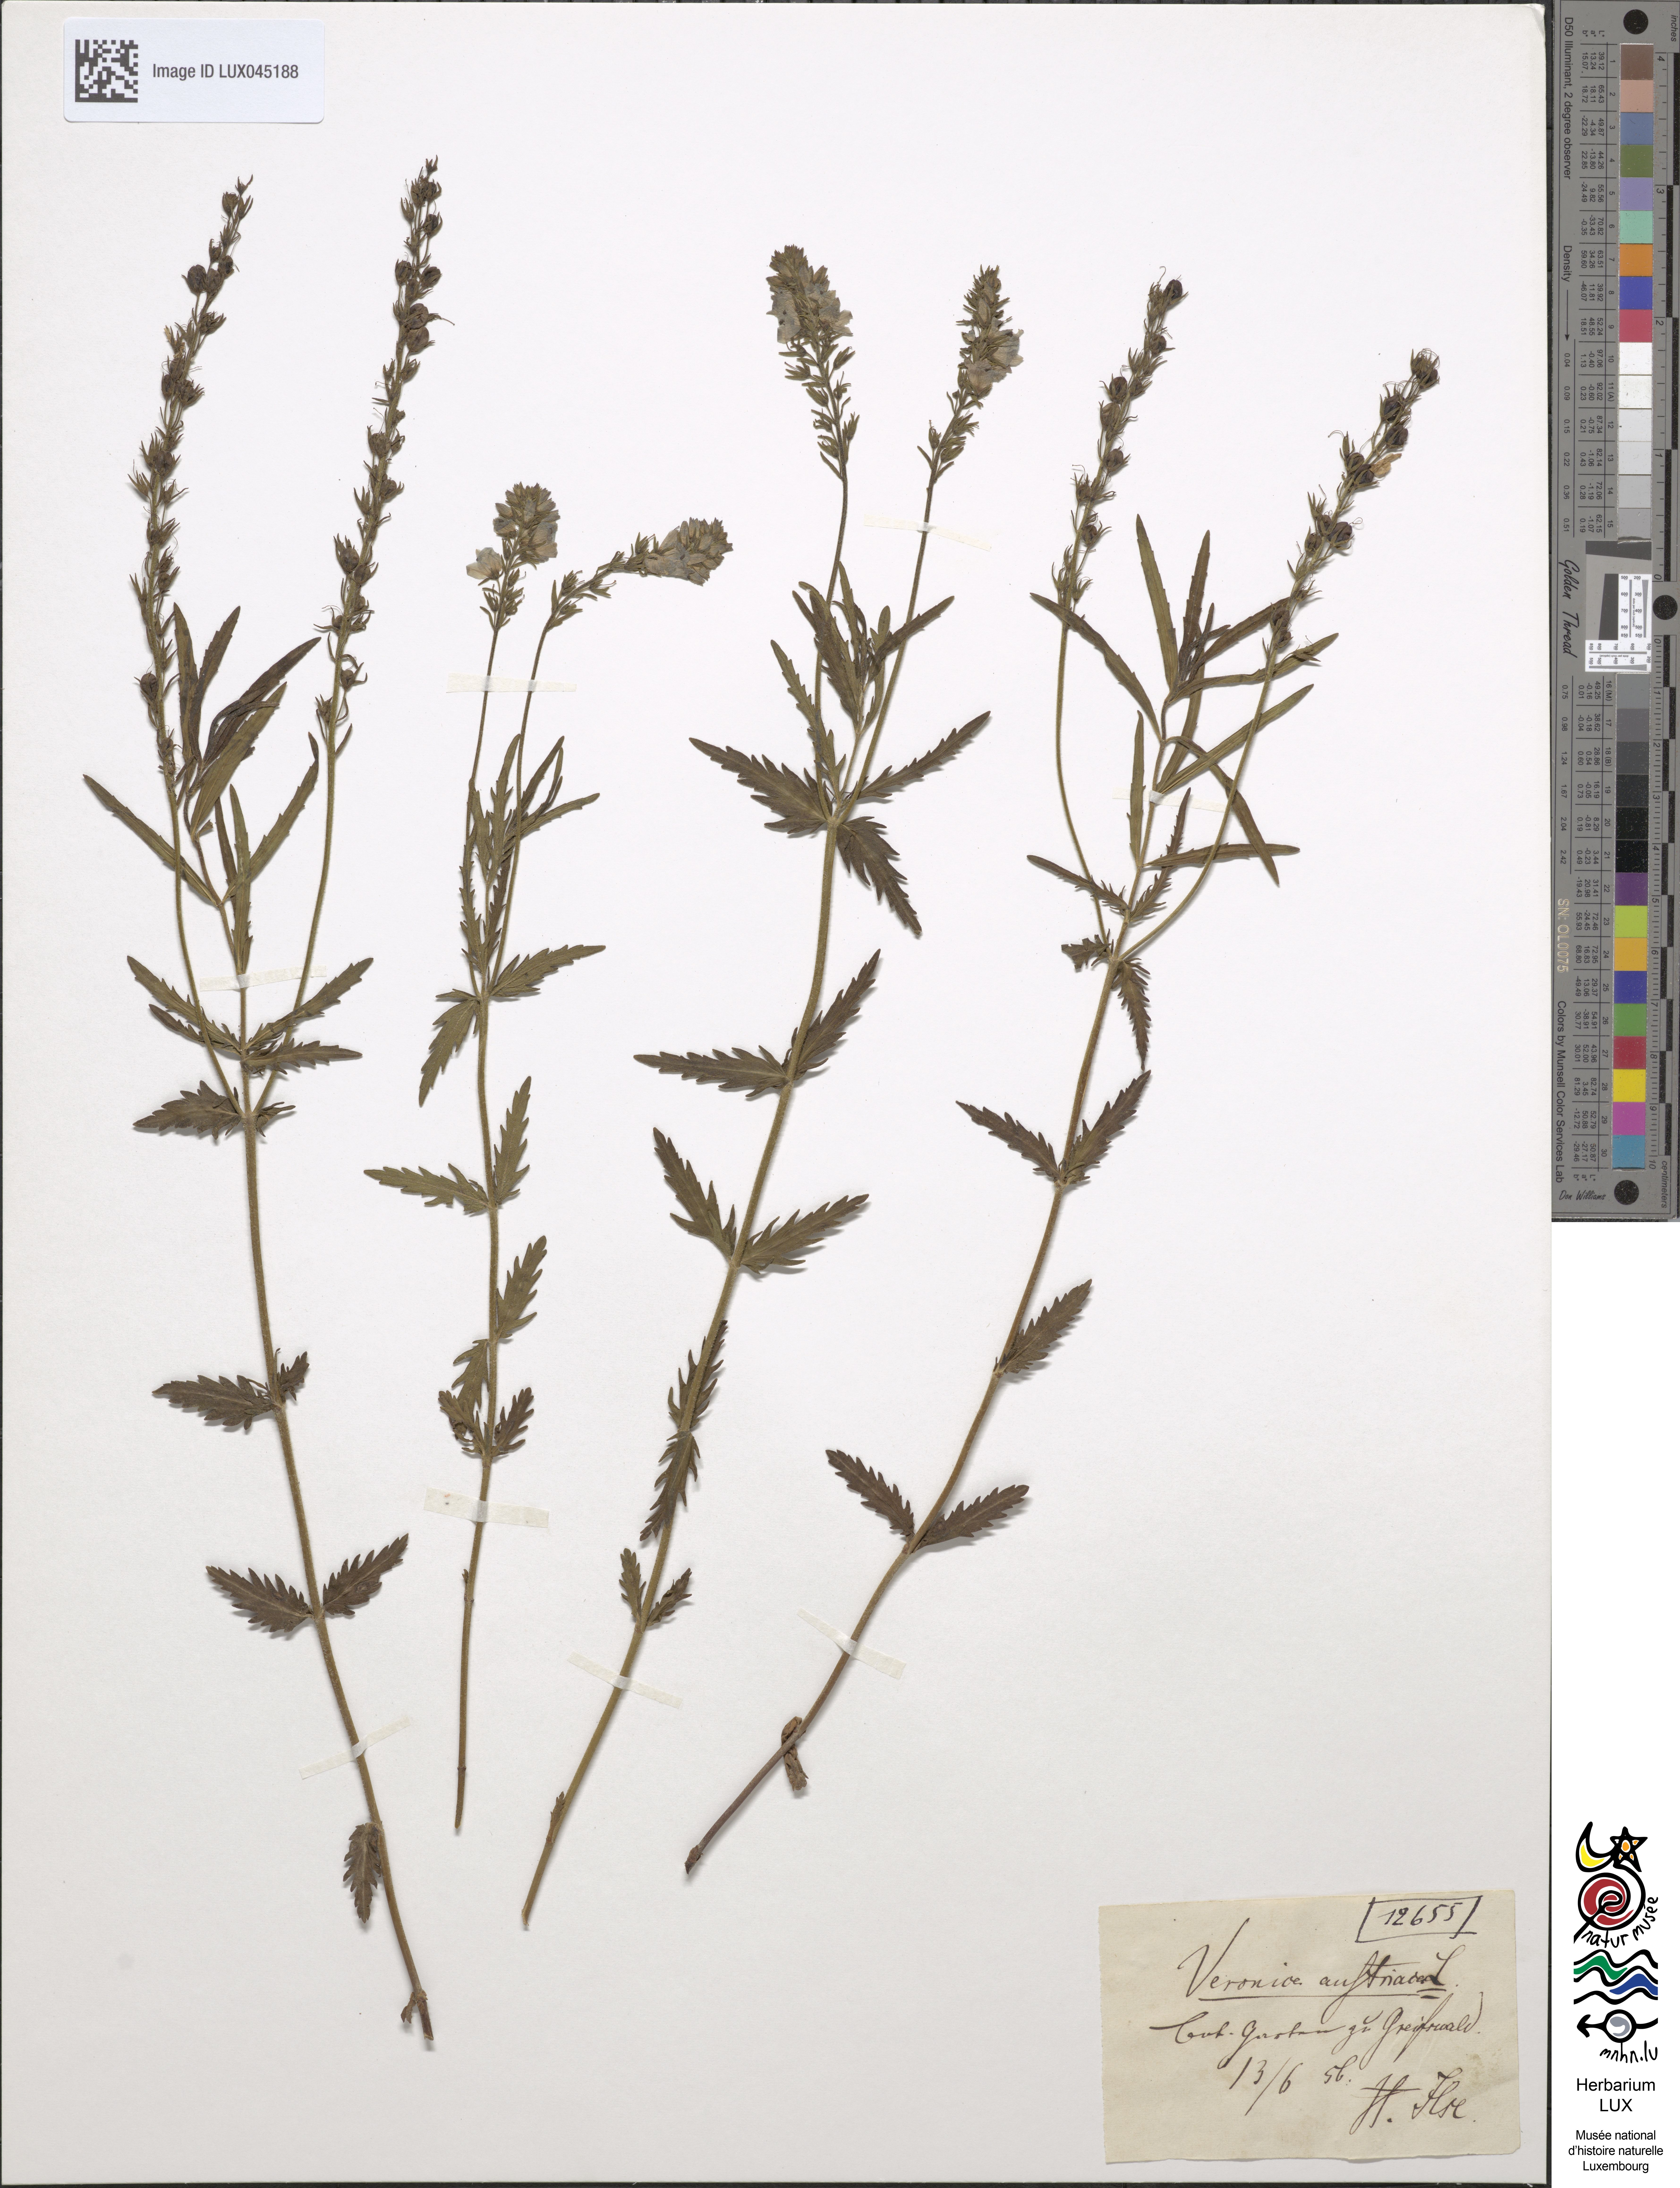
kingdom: Plantae
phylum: Tracheophyta
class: Magnoliopsida
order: Lamiales
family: Plantaginaceae
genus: Veronica
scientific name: Veronica austriaca
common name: Large speedwell
